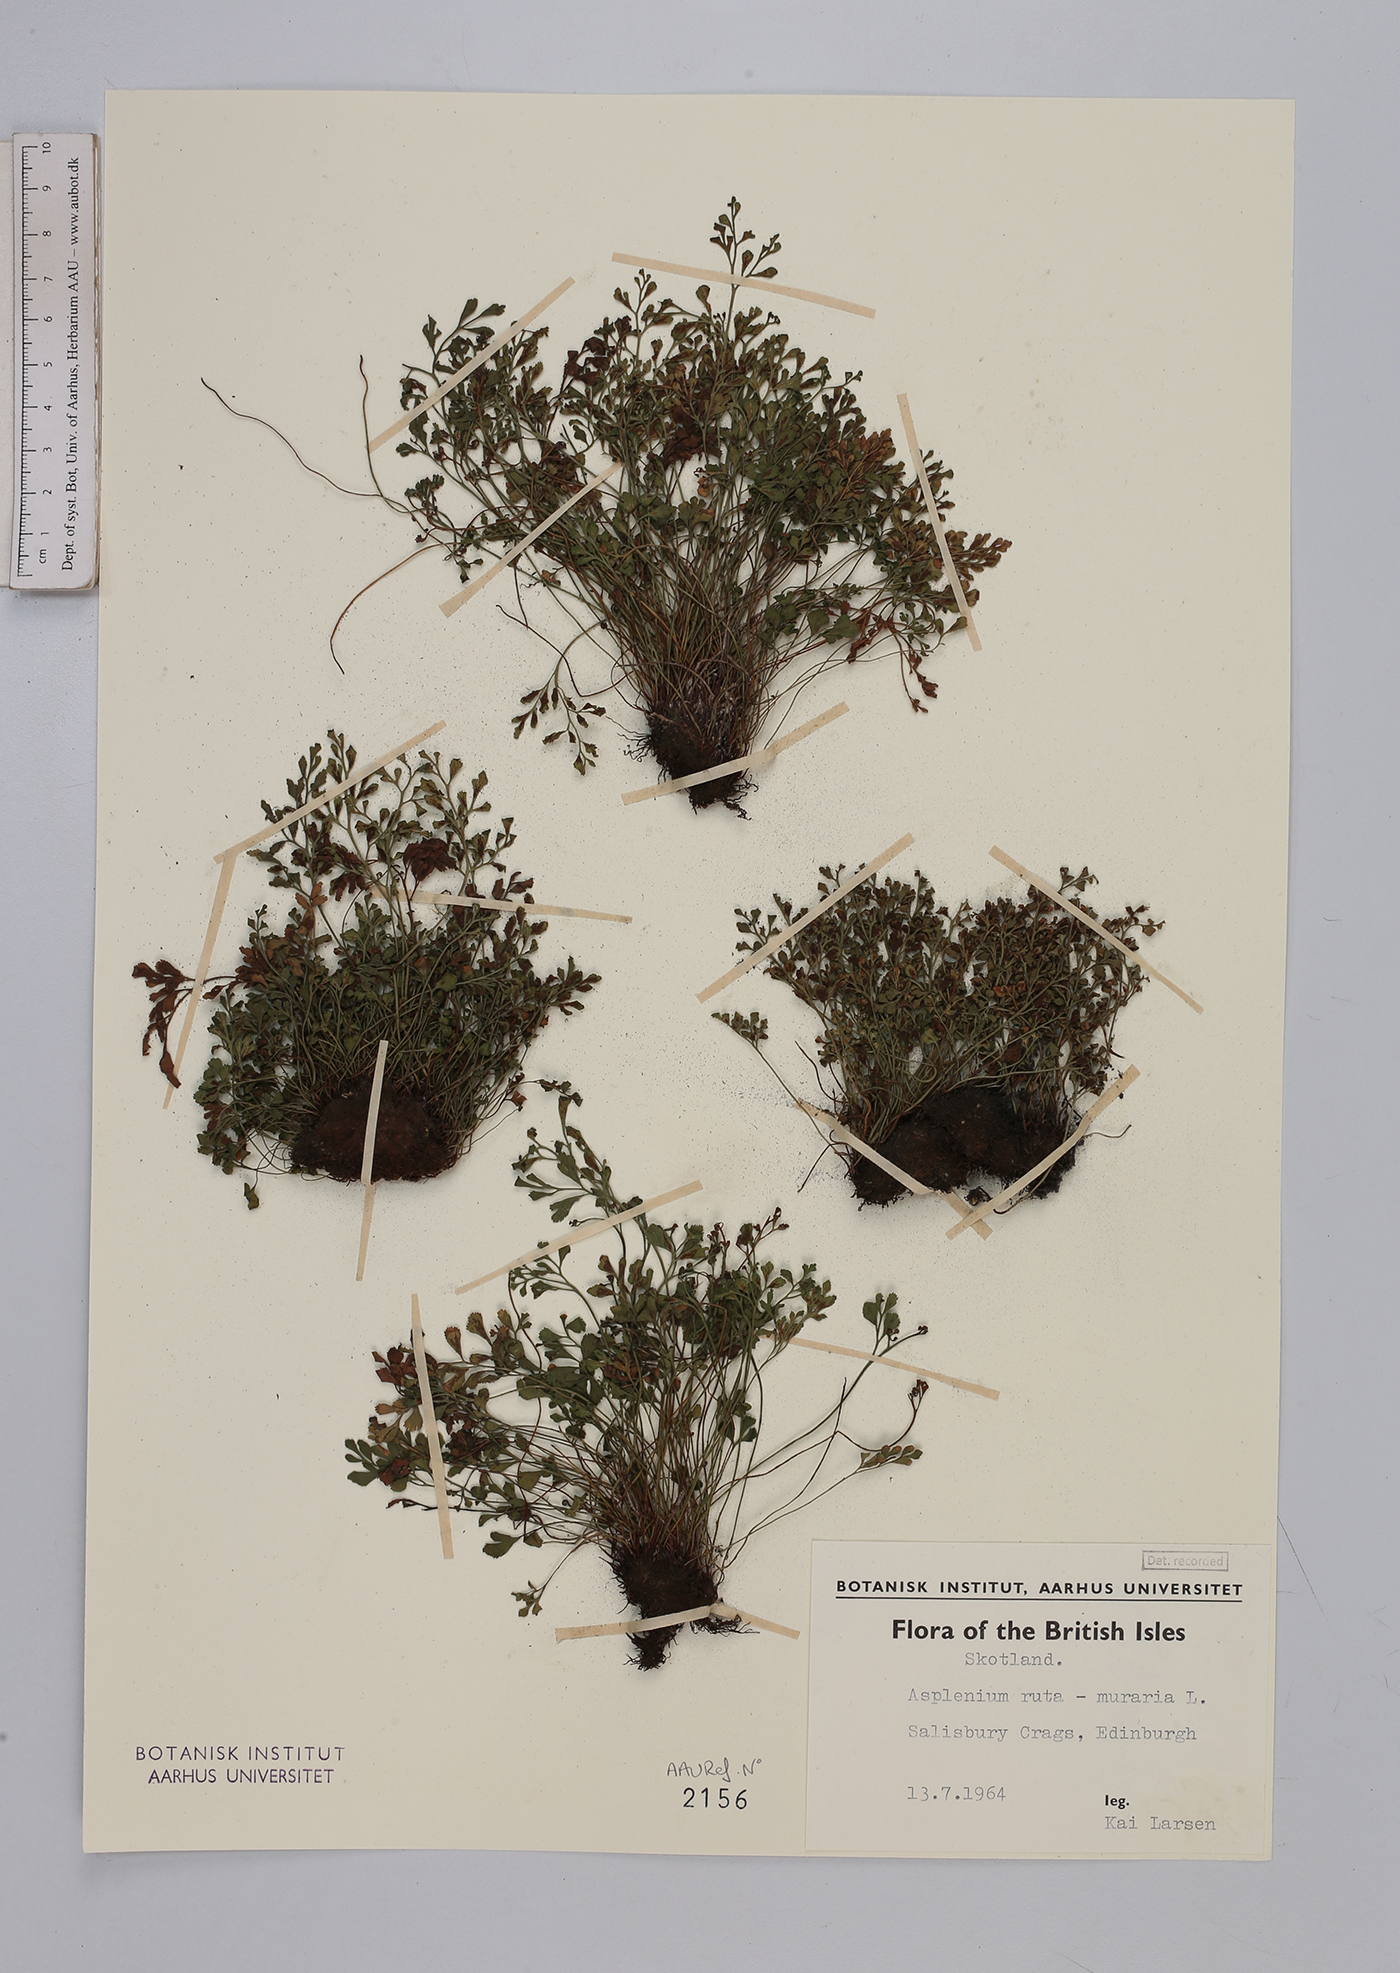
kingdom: Plantae
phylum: Tracheophyta
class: Polypodiopsida
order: Polypodiales
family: Aspleniaceae
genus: Asplenium
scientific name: Asplenium ruta-muraria
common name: Wall-rue
